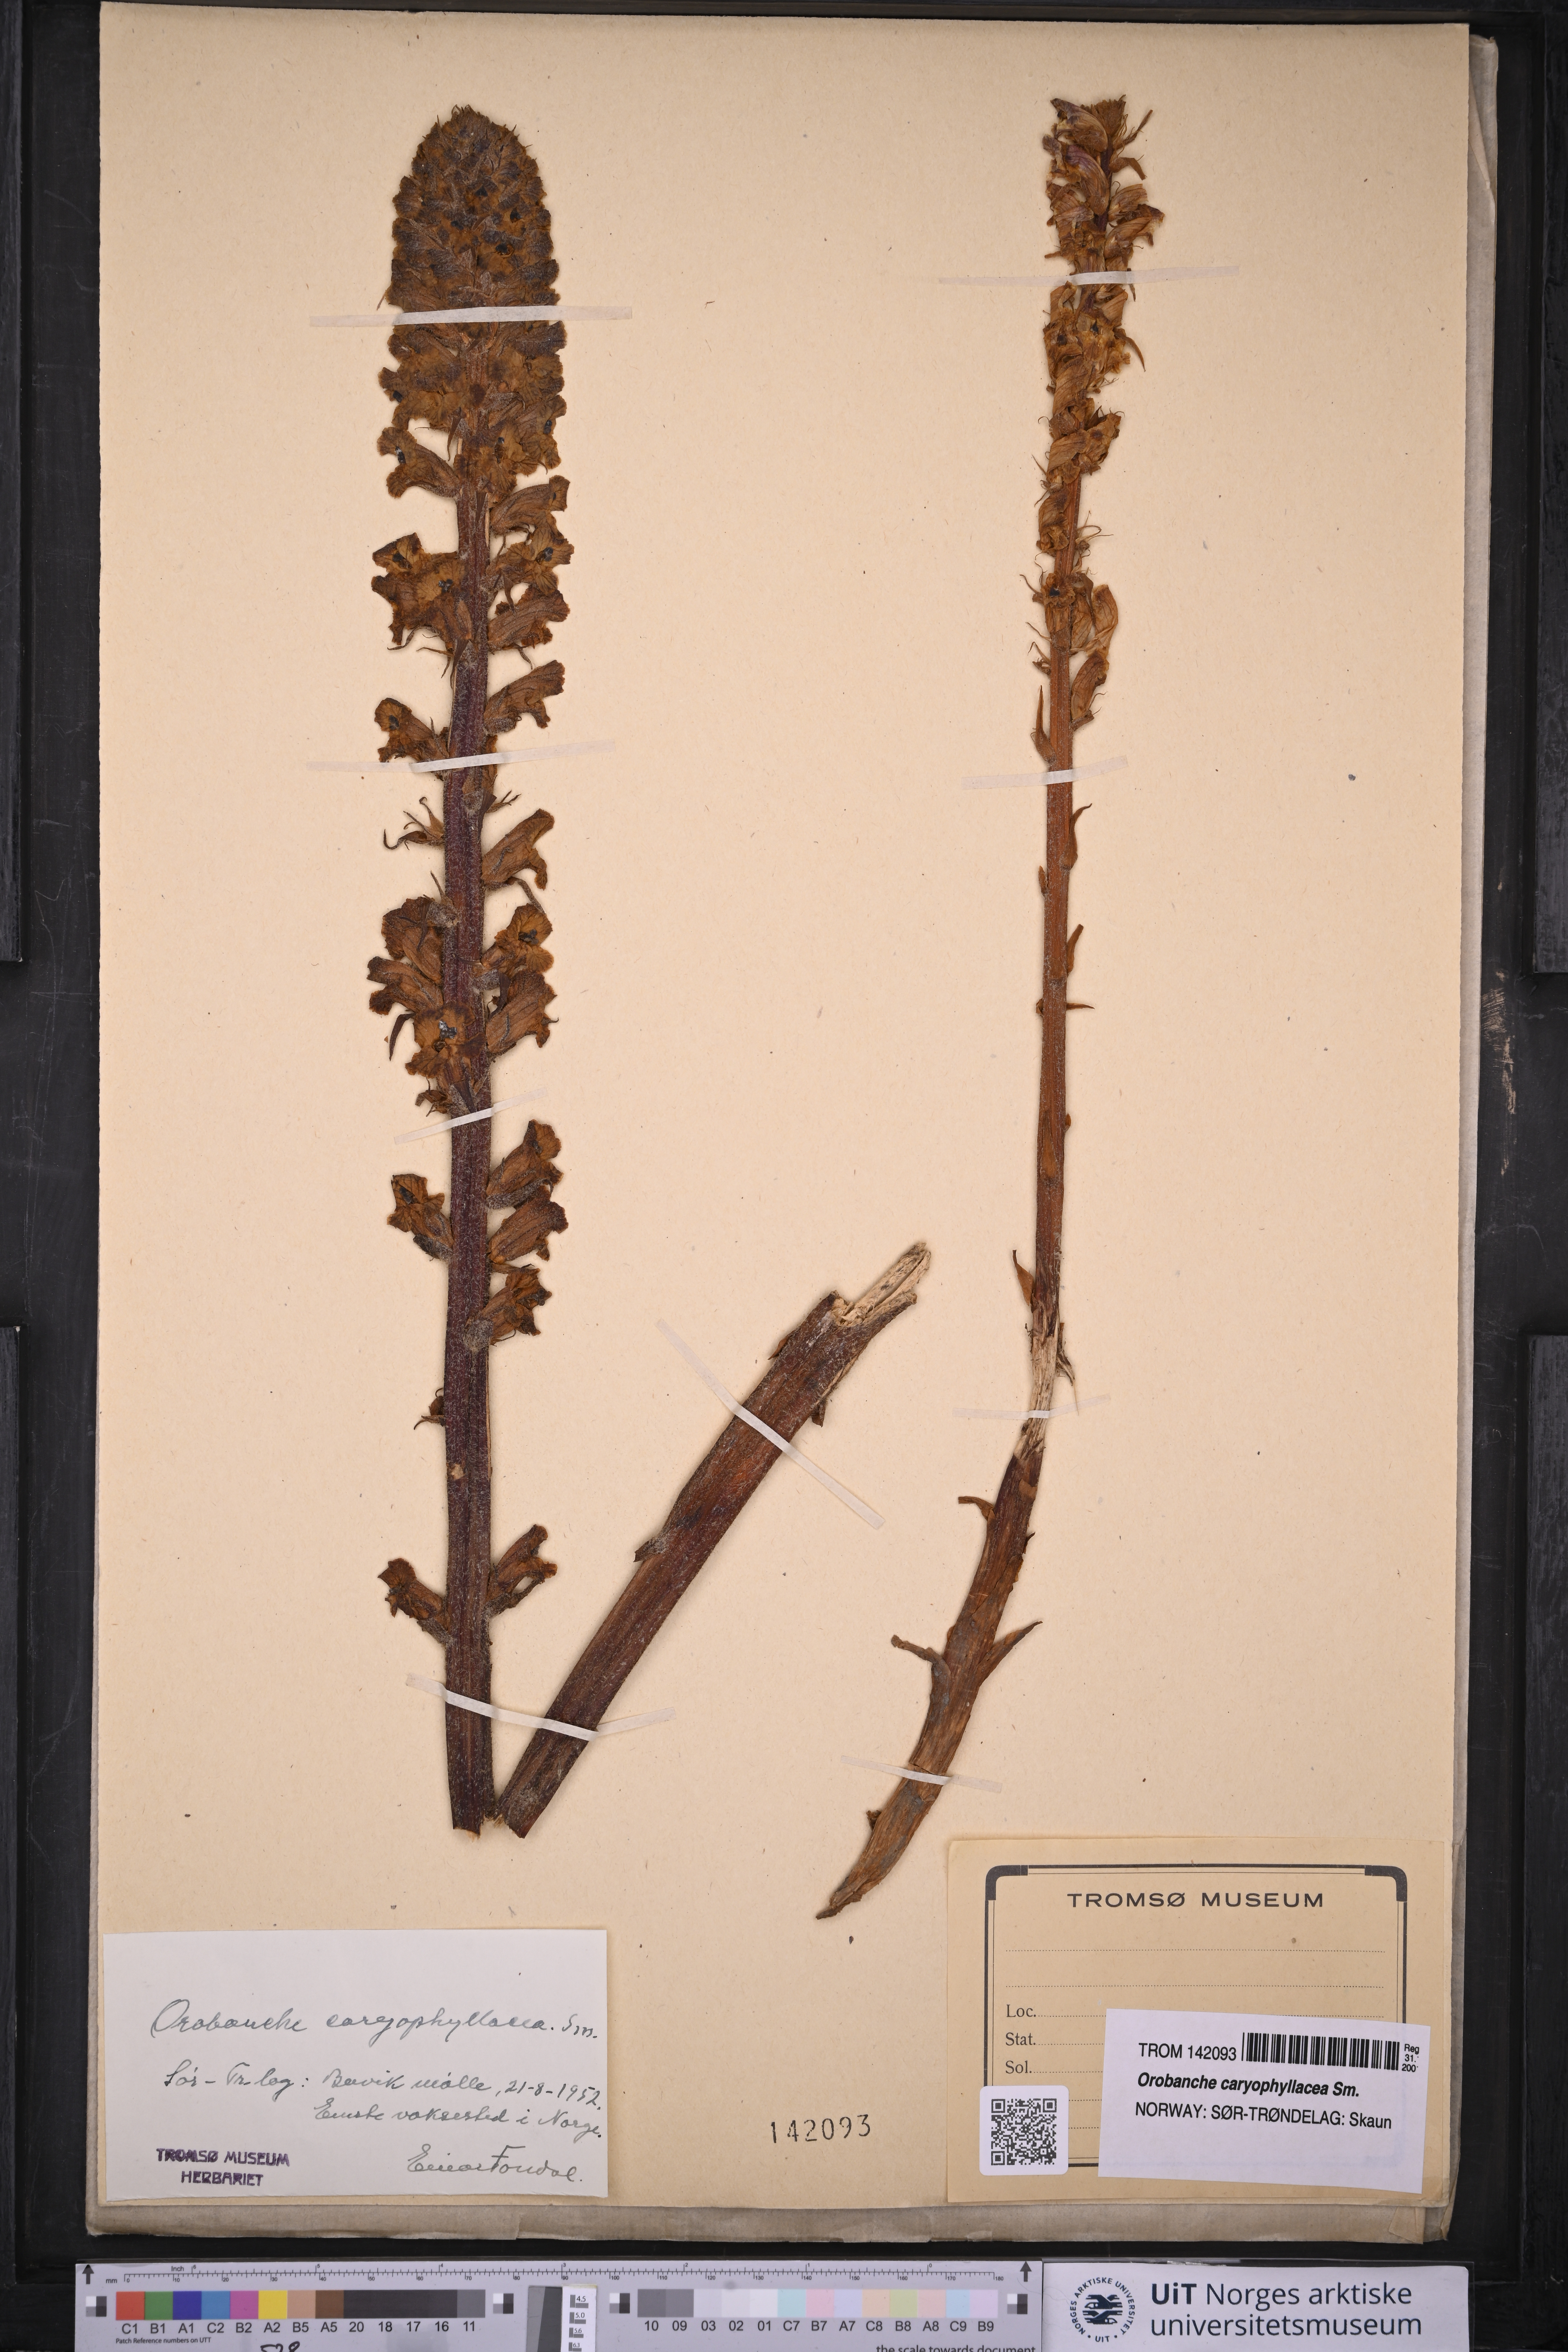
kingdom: Plantae
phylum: Tracheophyta
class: Magnoliopsida
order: Lamiales
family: Orobanchaceae
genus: Orobanche
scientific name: Orobanche caryophyllacea
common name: Bedstraw broomrape
